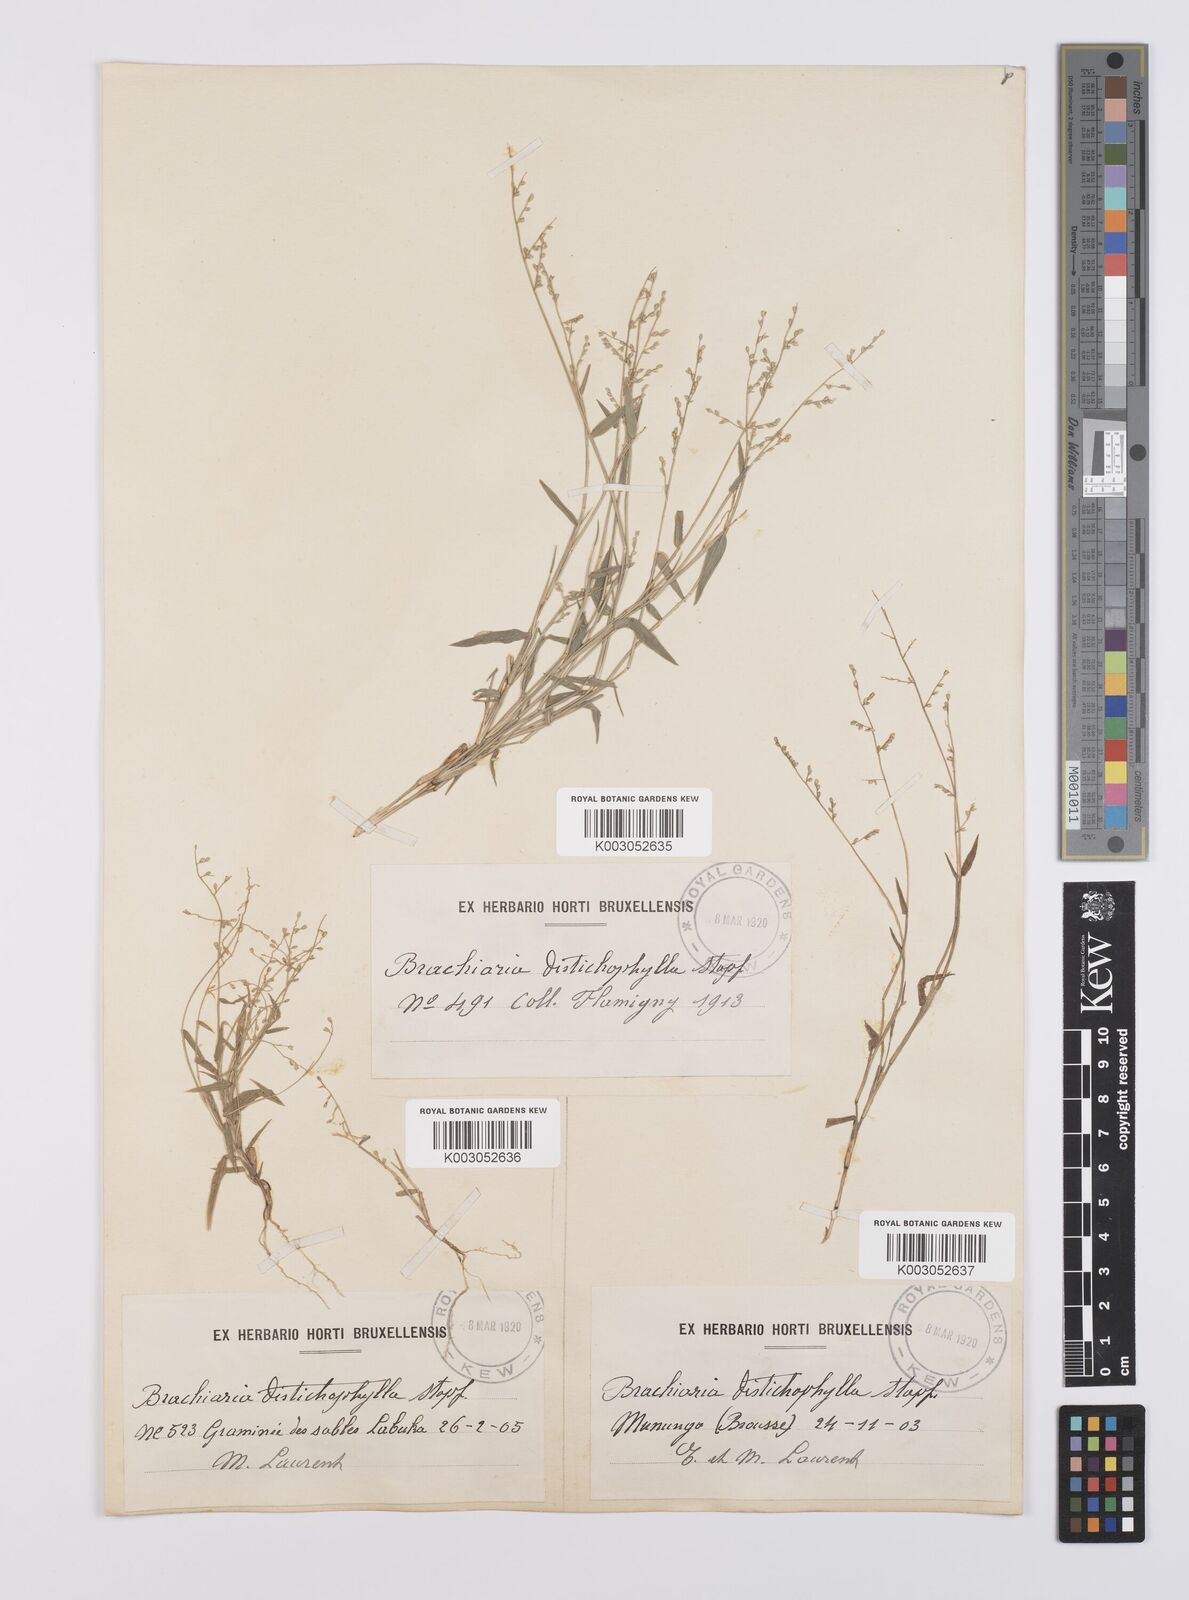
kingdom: Plantae
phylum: Tracheophyta
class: Liliopsida
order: Poales
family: Poaceae
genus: Urochloa
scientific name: Urochloa villosa
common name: Hairy signalgrass
